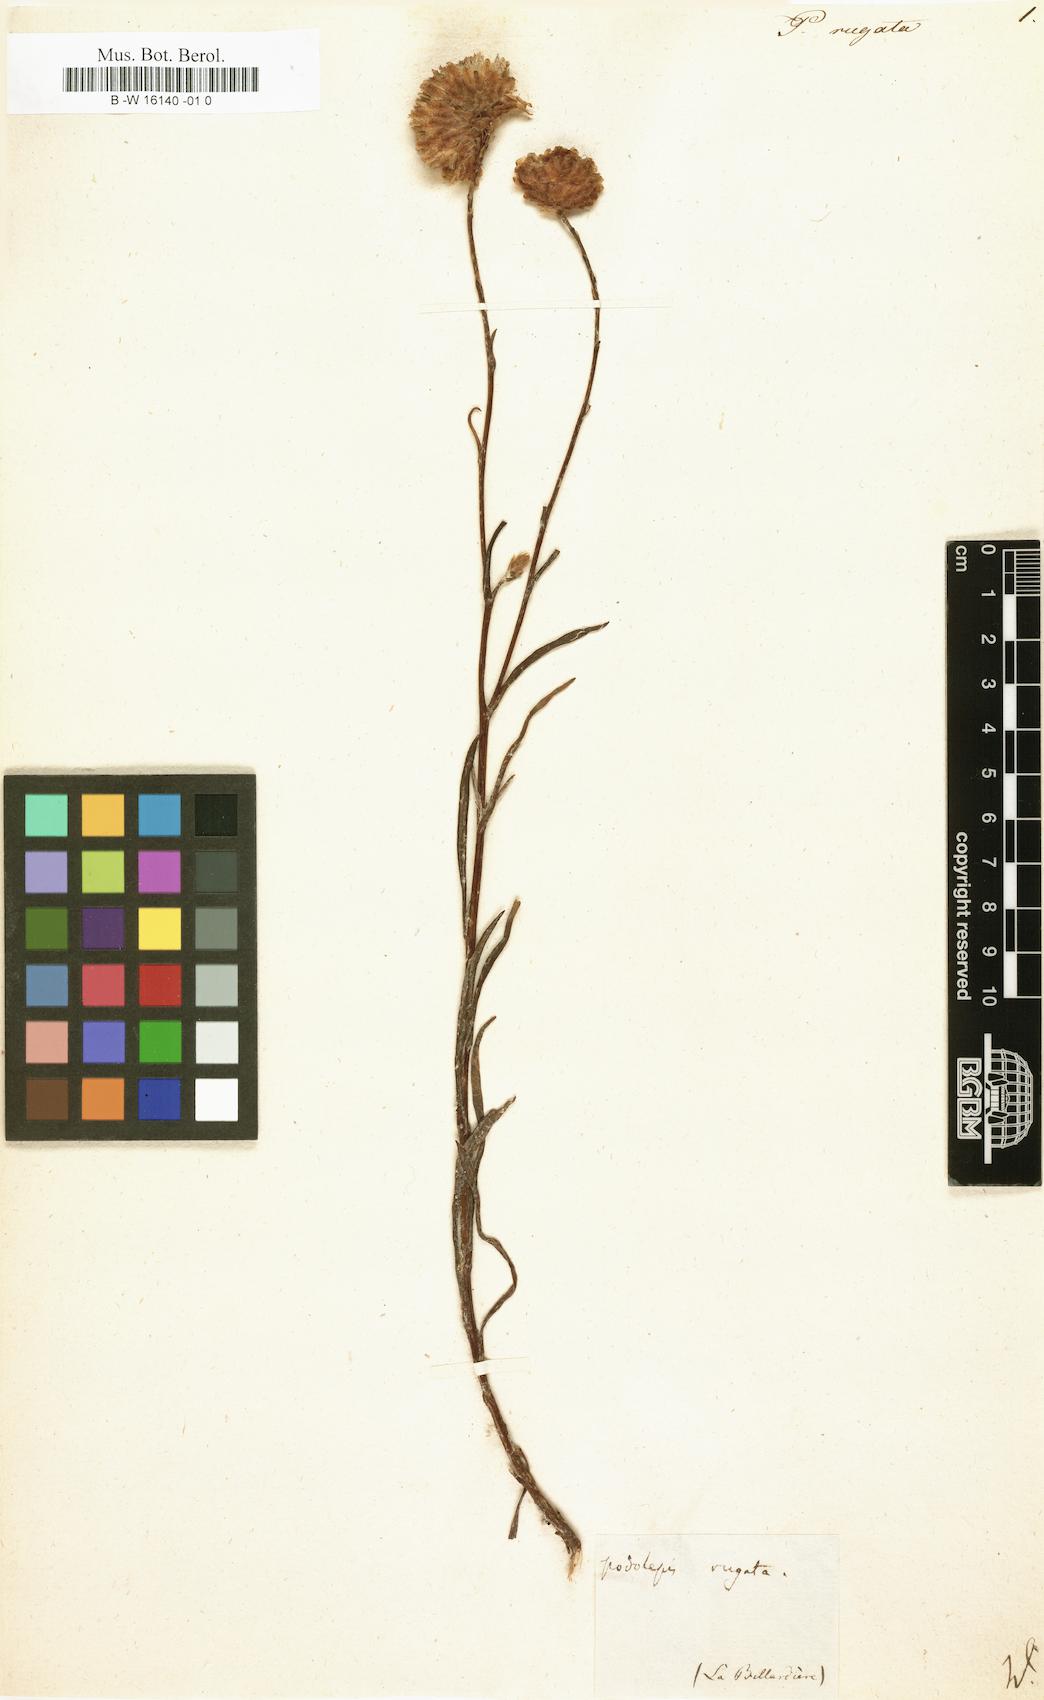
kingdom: Plantae
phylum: Tracheophyta
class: Magnoliopsida
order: Asterales
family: Asteraceae
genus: Podolepis
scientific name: Podolepis rugata
